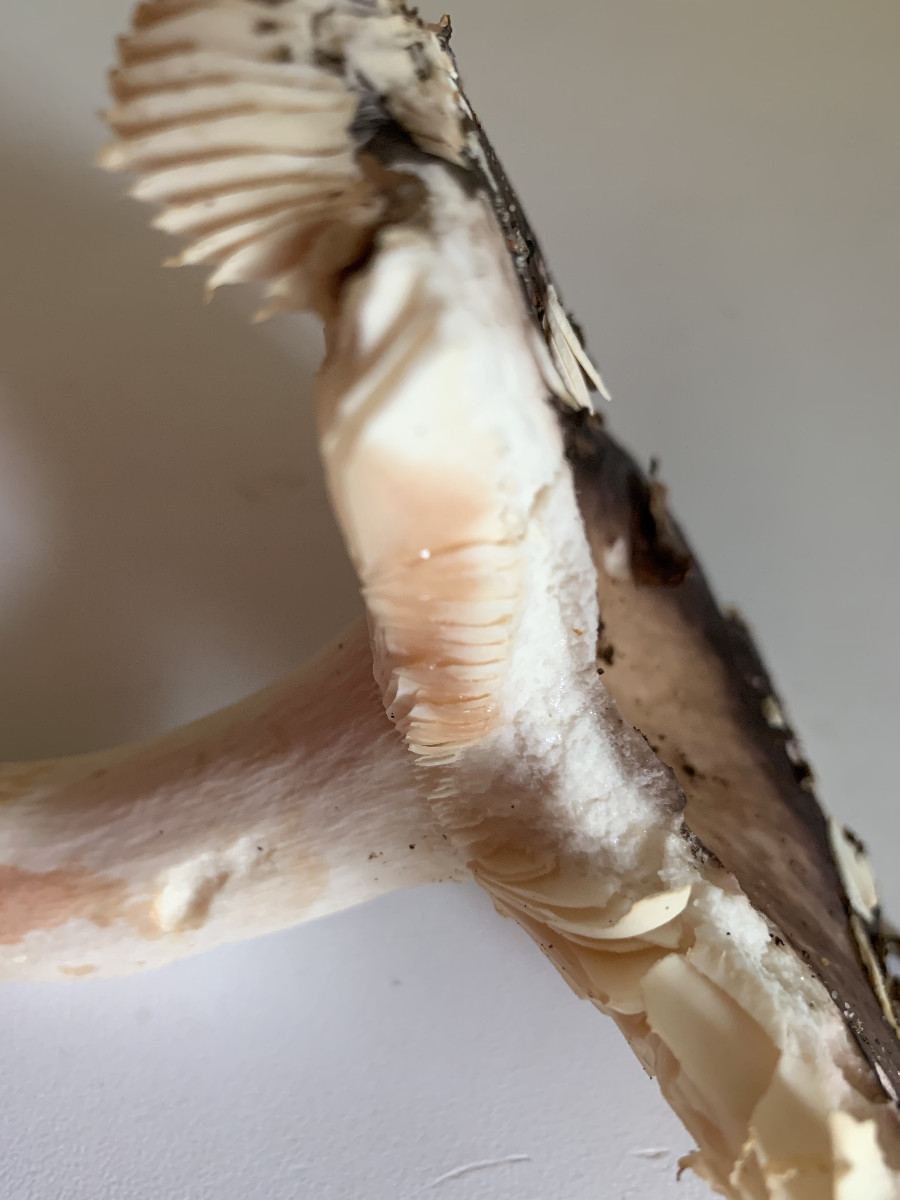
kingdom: Fungi
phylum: Basidiomycota
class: Agaricomycetes
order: Russulales
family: Russulaceae
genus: Russula
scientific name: Russula brunneoviolacea
